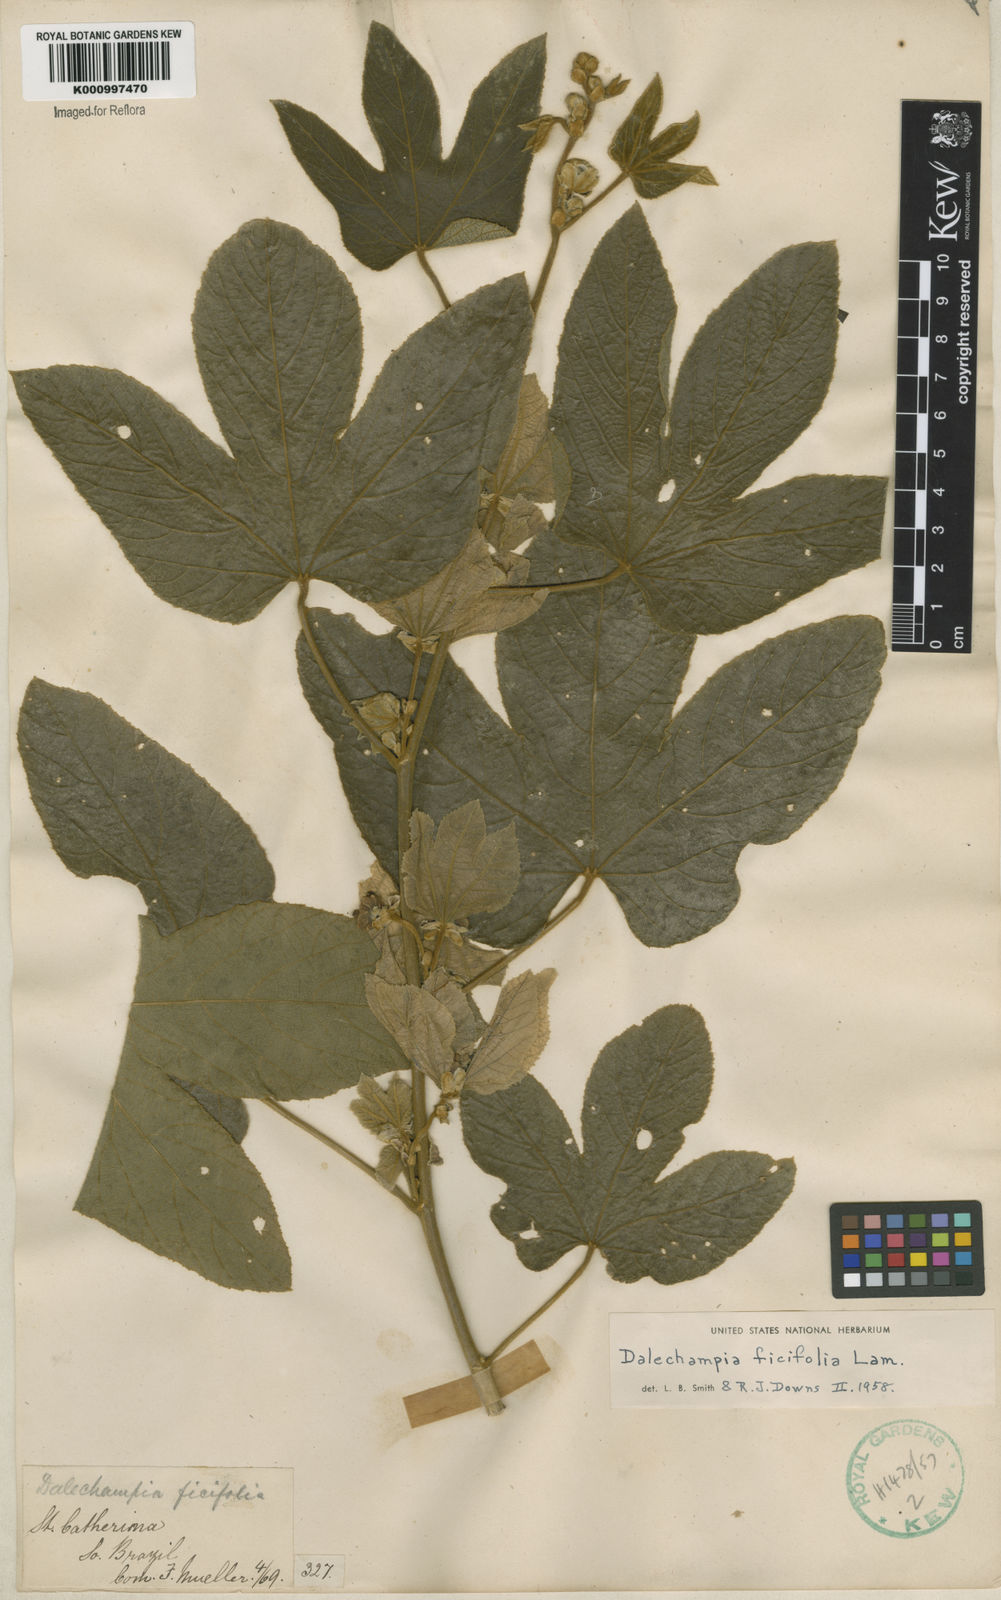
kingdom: Plantae
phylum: Tracheophyta
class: Magnoliopsida
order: Malpighiales
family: Euphorbiaceae
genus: Dalechampia
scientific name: Dalechampia ficifolia
